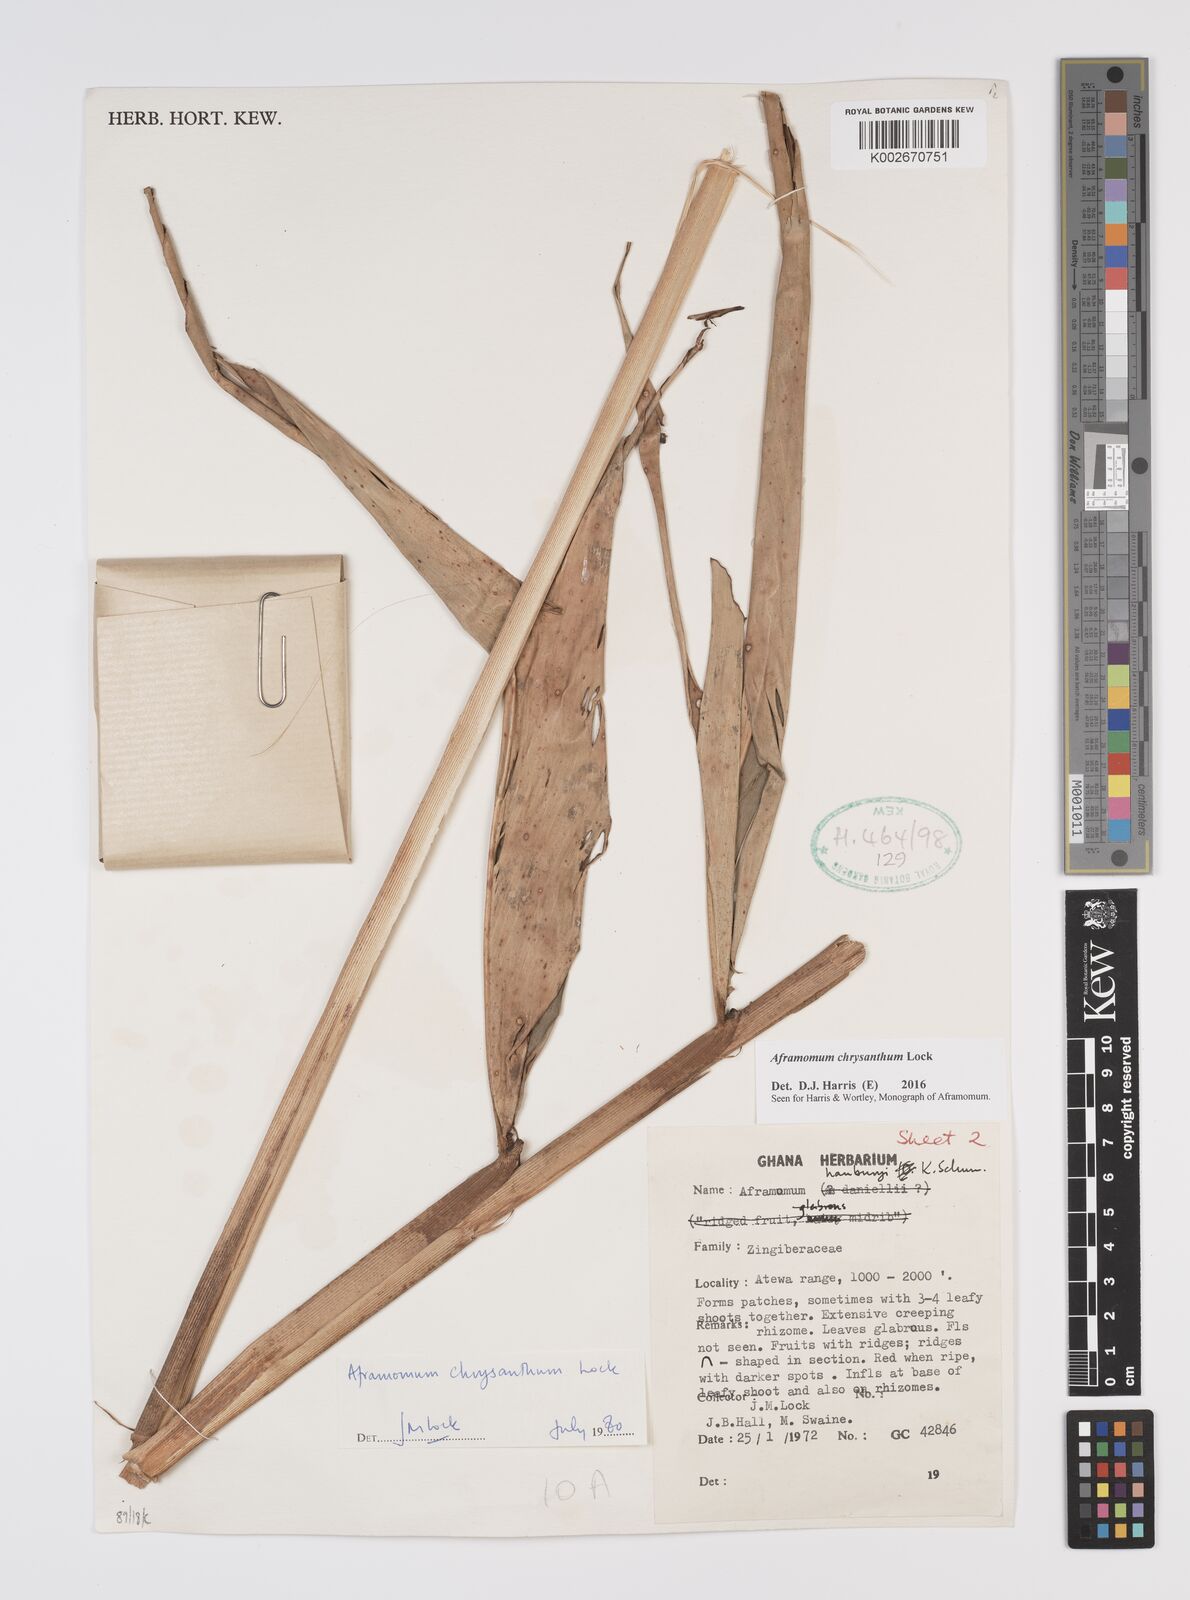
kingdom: Plantae
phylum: Tracheophyta
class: Liliopsida
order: Zingiberales
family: Zingiberaceae
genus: Aframomum
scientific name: Aframomum chrysanthum
